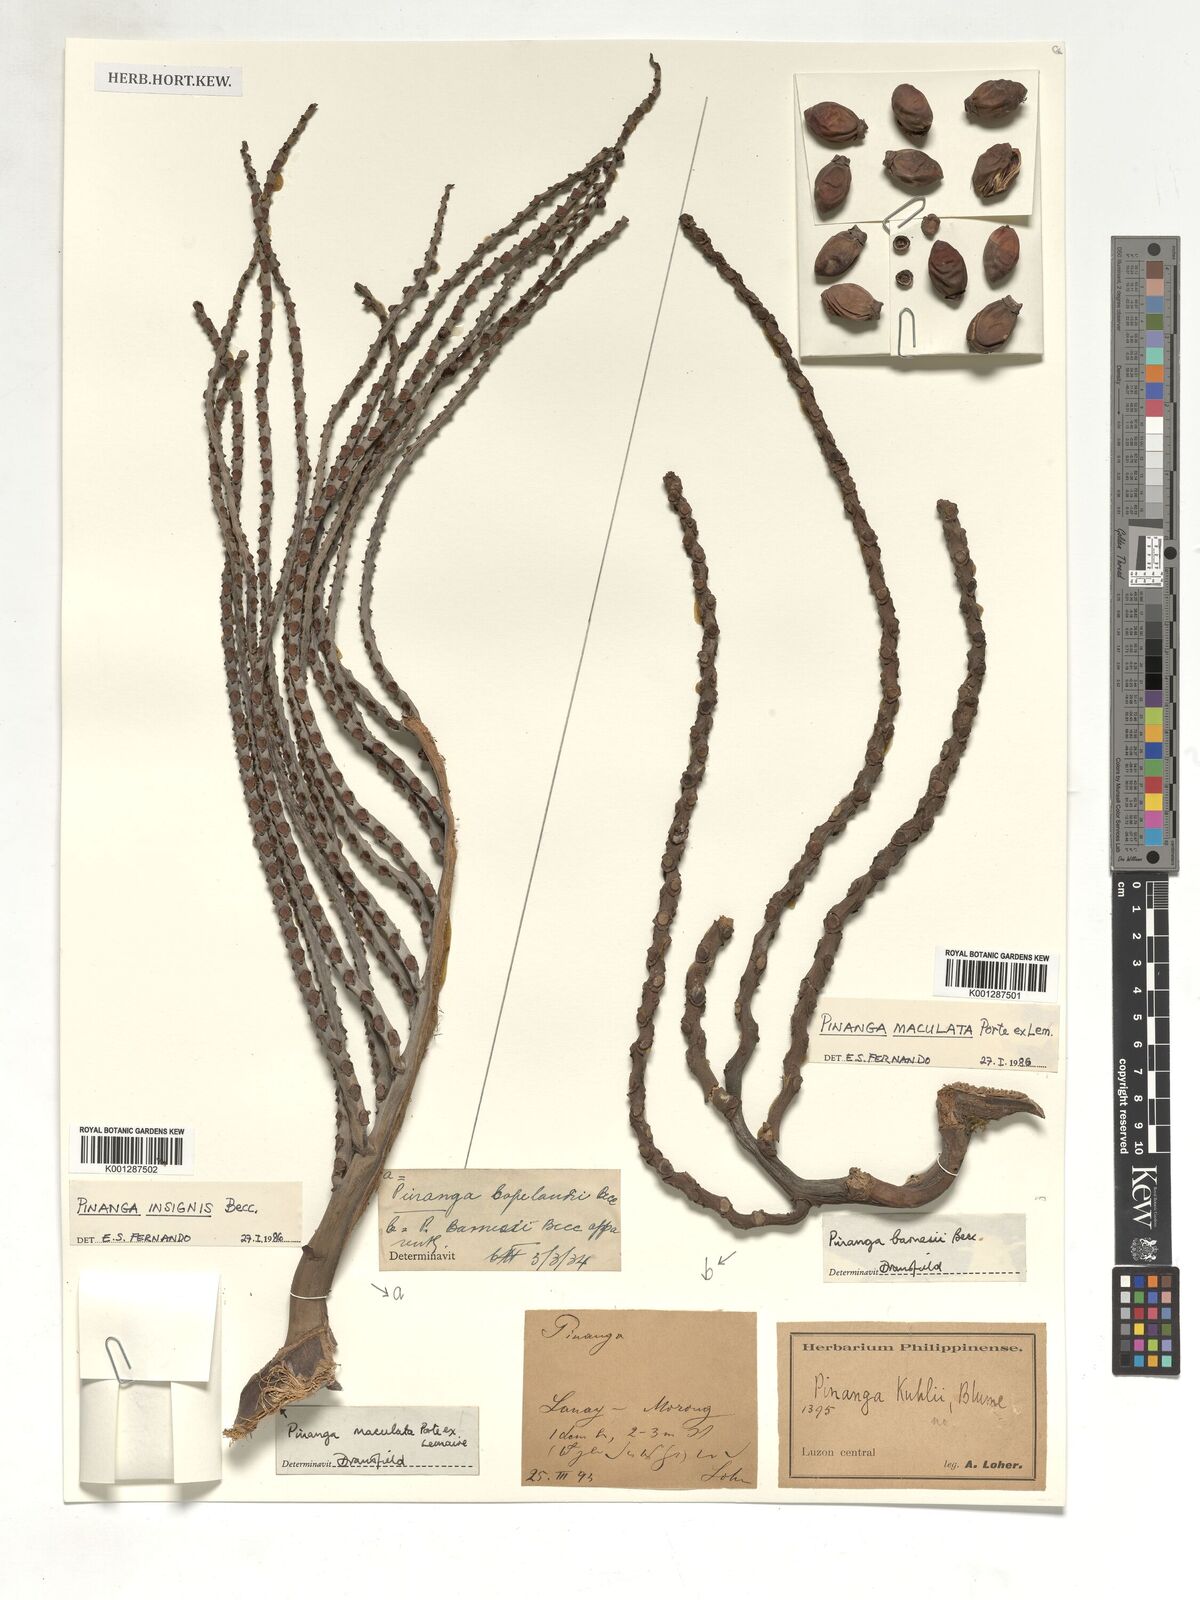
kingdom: Plantae
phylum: Tracheophyta
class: Liliopsida
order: Arecales
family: Arecaceae
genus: Pinanga
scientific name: Pinanga maculata
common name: Tiger palm
